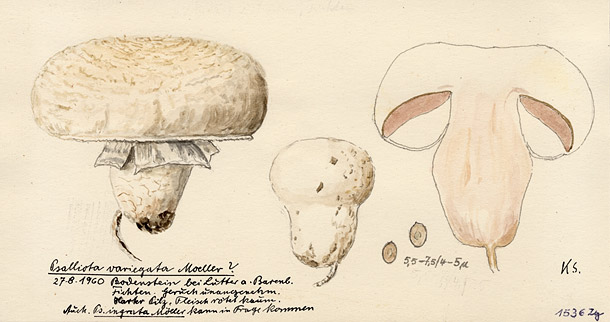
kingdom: Fungi
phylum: Basidiomycota
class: Agaricomycetes
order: Agaricales
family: Agaricaceae
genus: Agaricus
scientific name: Agaricus impudicus
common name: Tufted wood mushroom
